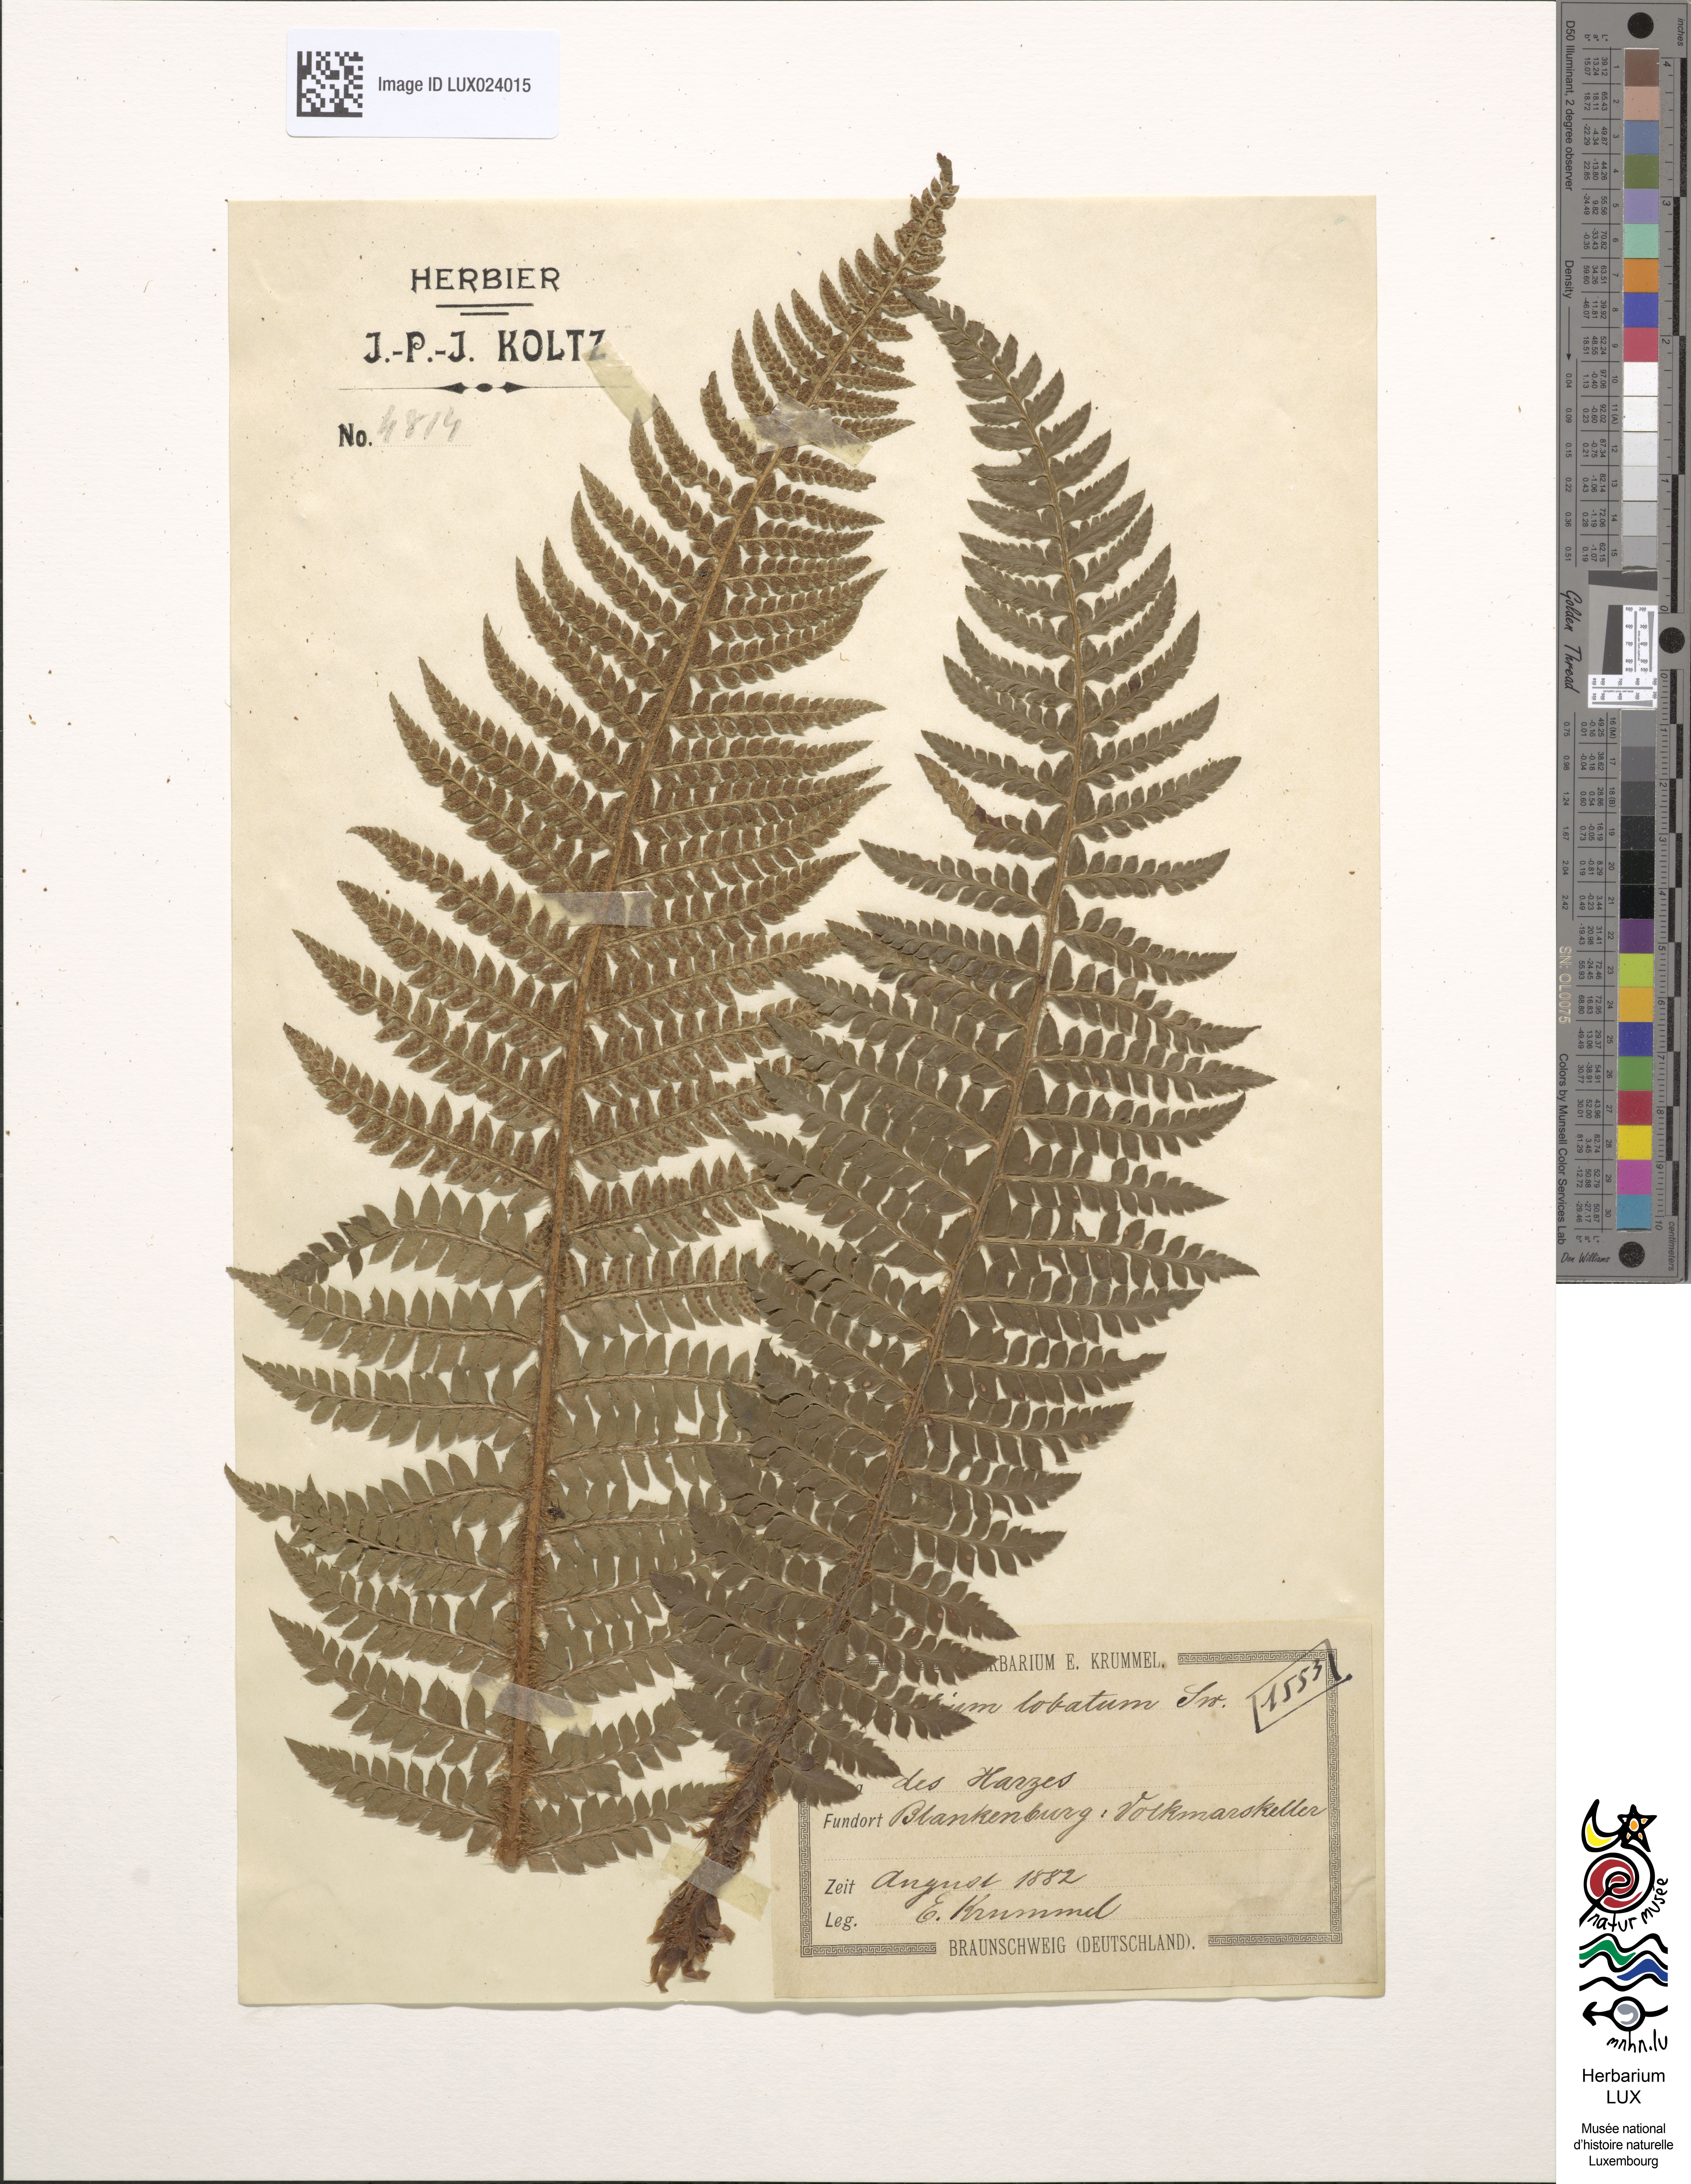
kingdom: Plantae
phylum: Tracheophyta
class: Polypodiopsida
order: Polypodiales
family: Dryopteridaceae
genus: Polystichum
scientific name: Polystichum
